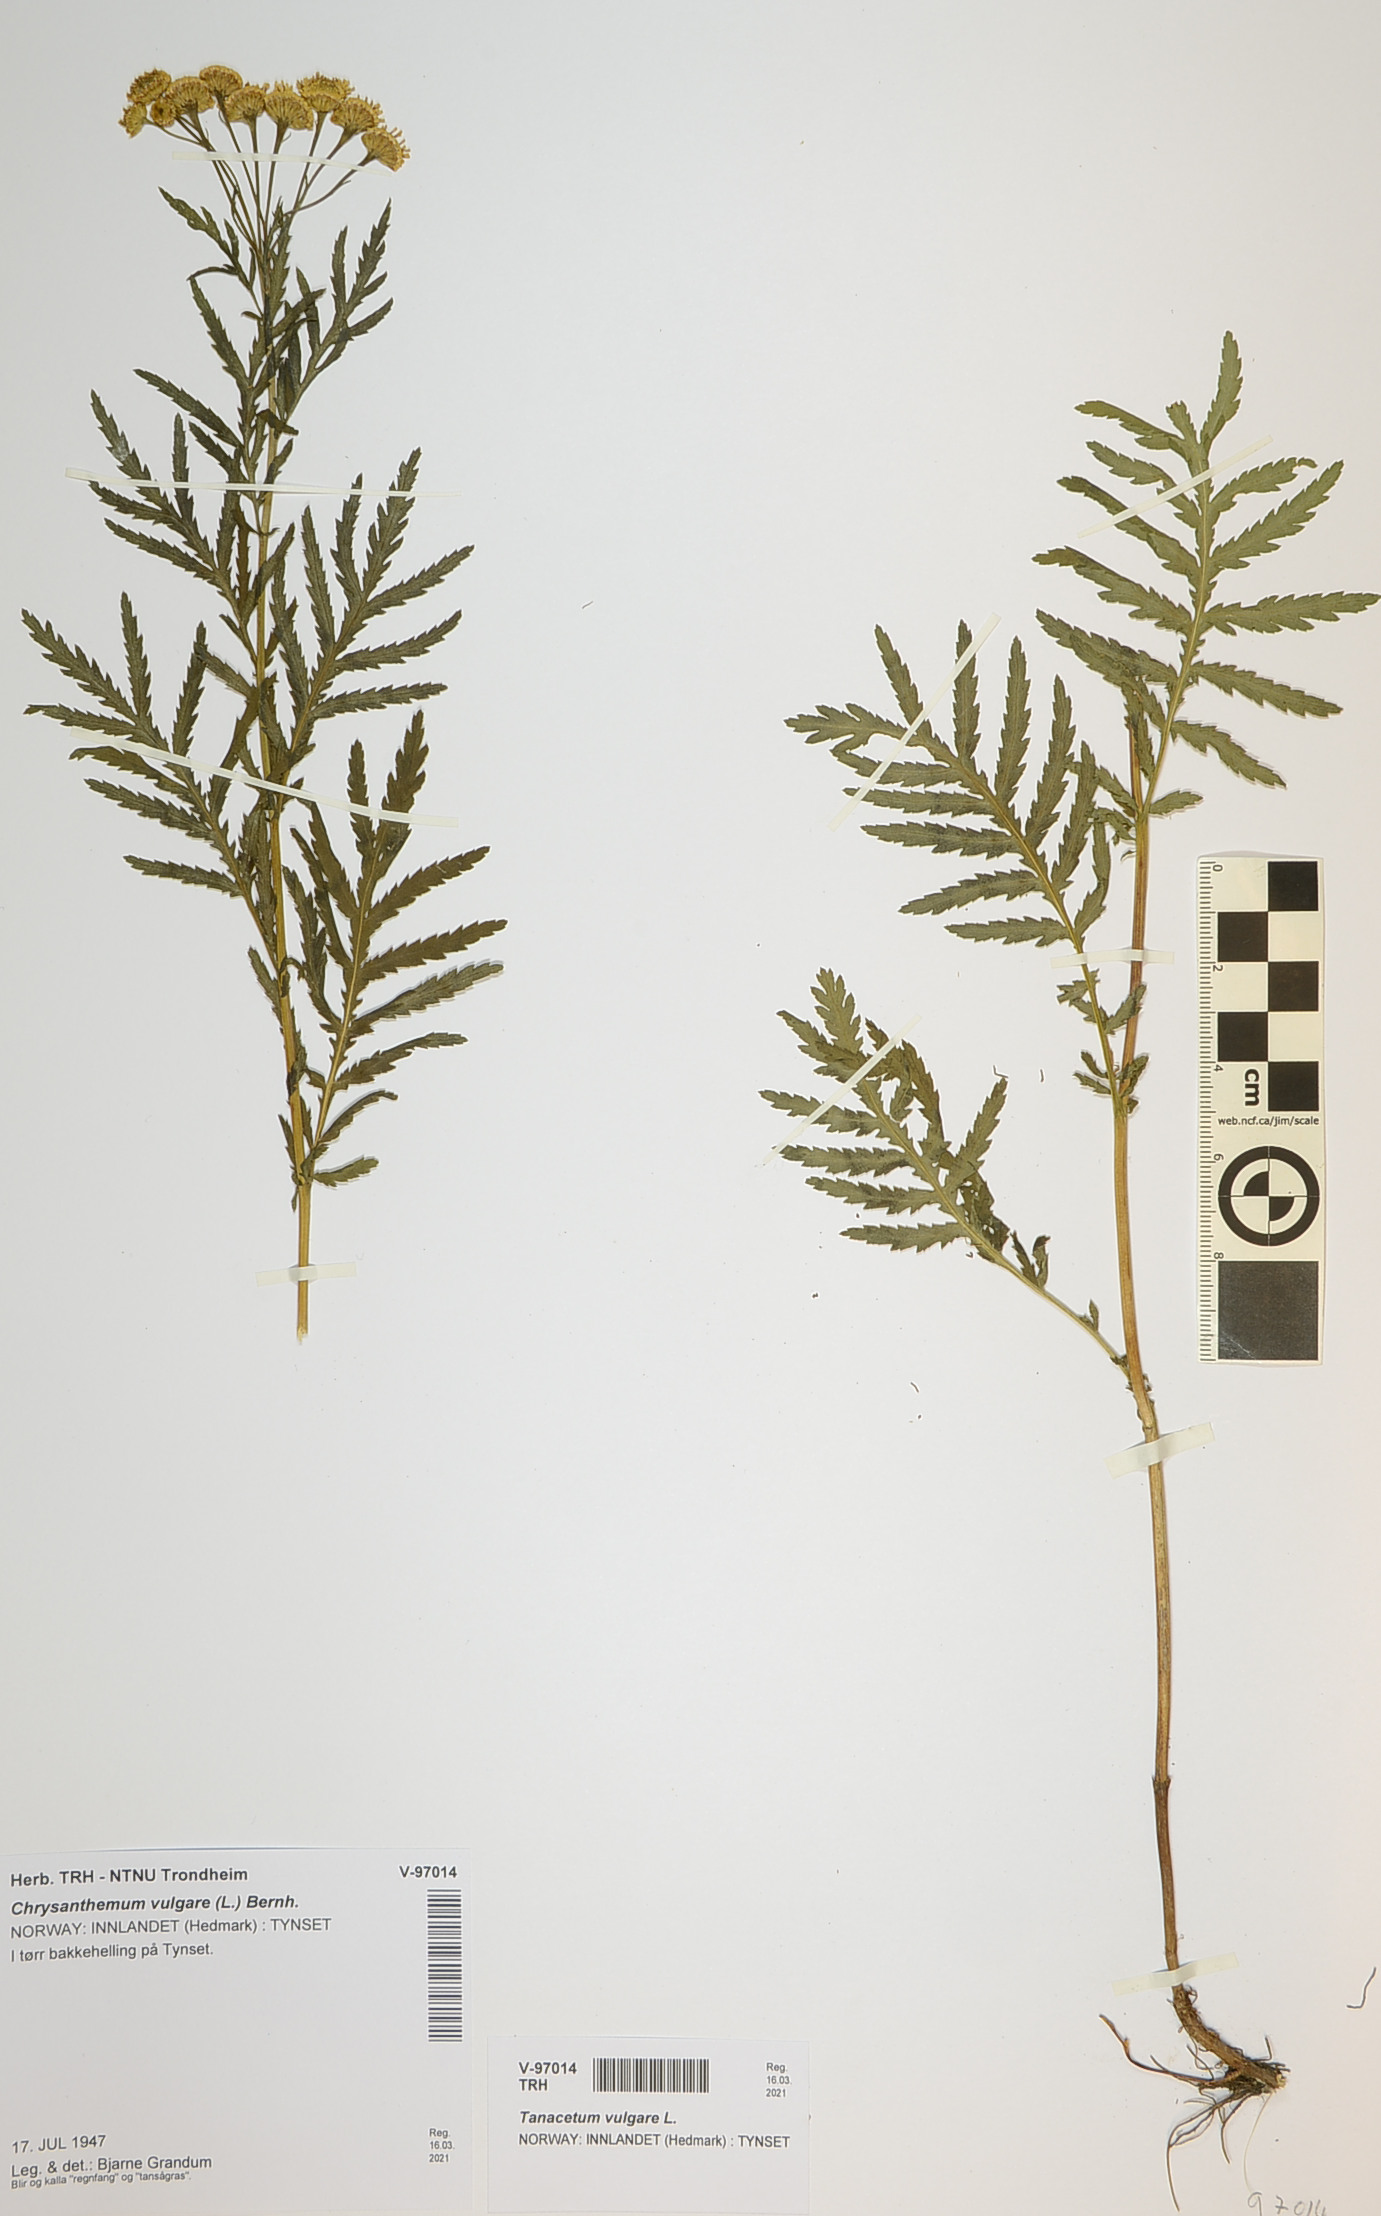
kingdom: Plantae
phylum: Tracheophyta
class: Magnoliopsida
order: Asterales
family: Asteraceae
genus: Tanacetum
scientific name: Tanacetum vulgare
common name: Common tansy
